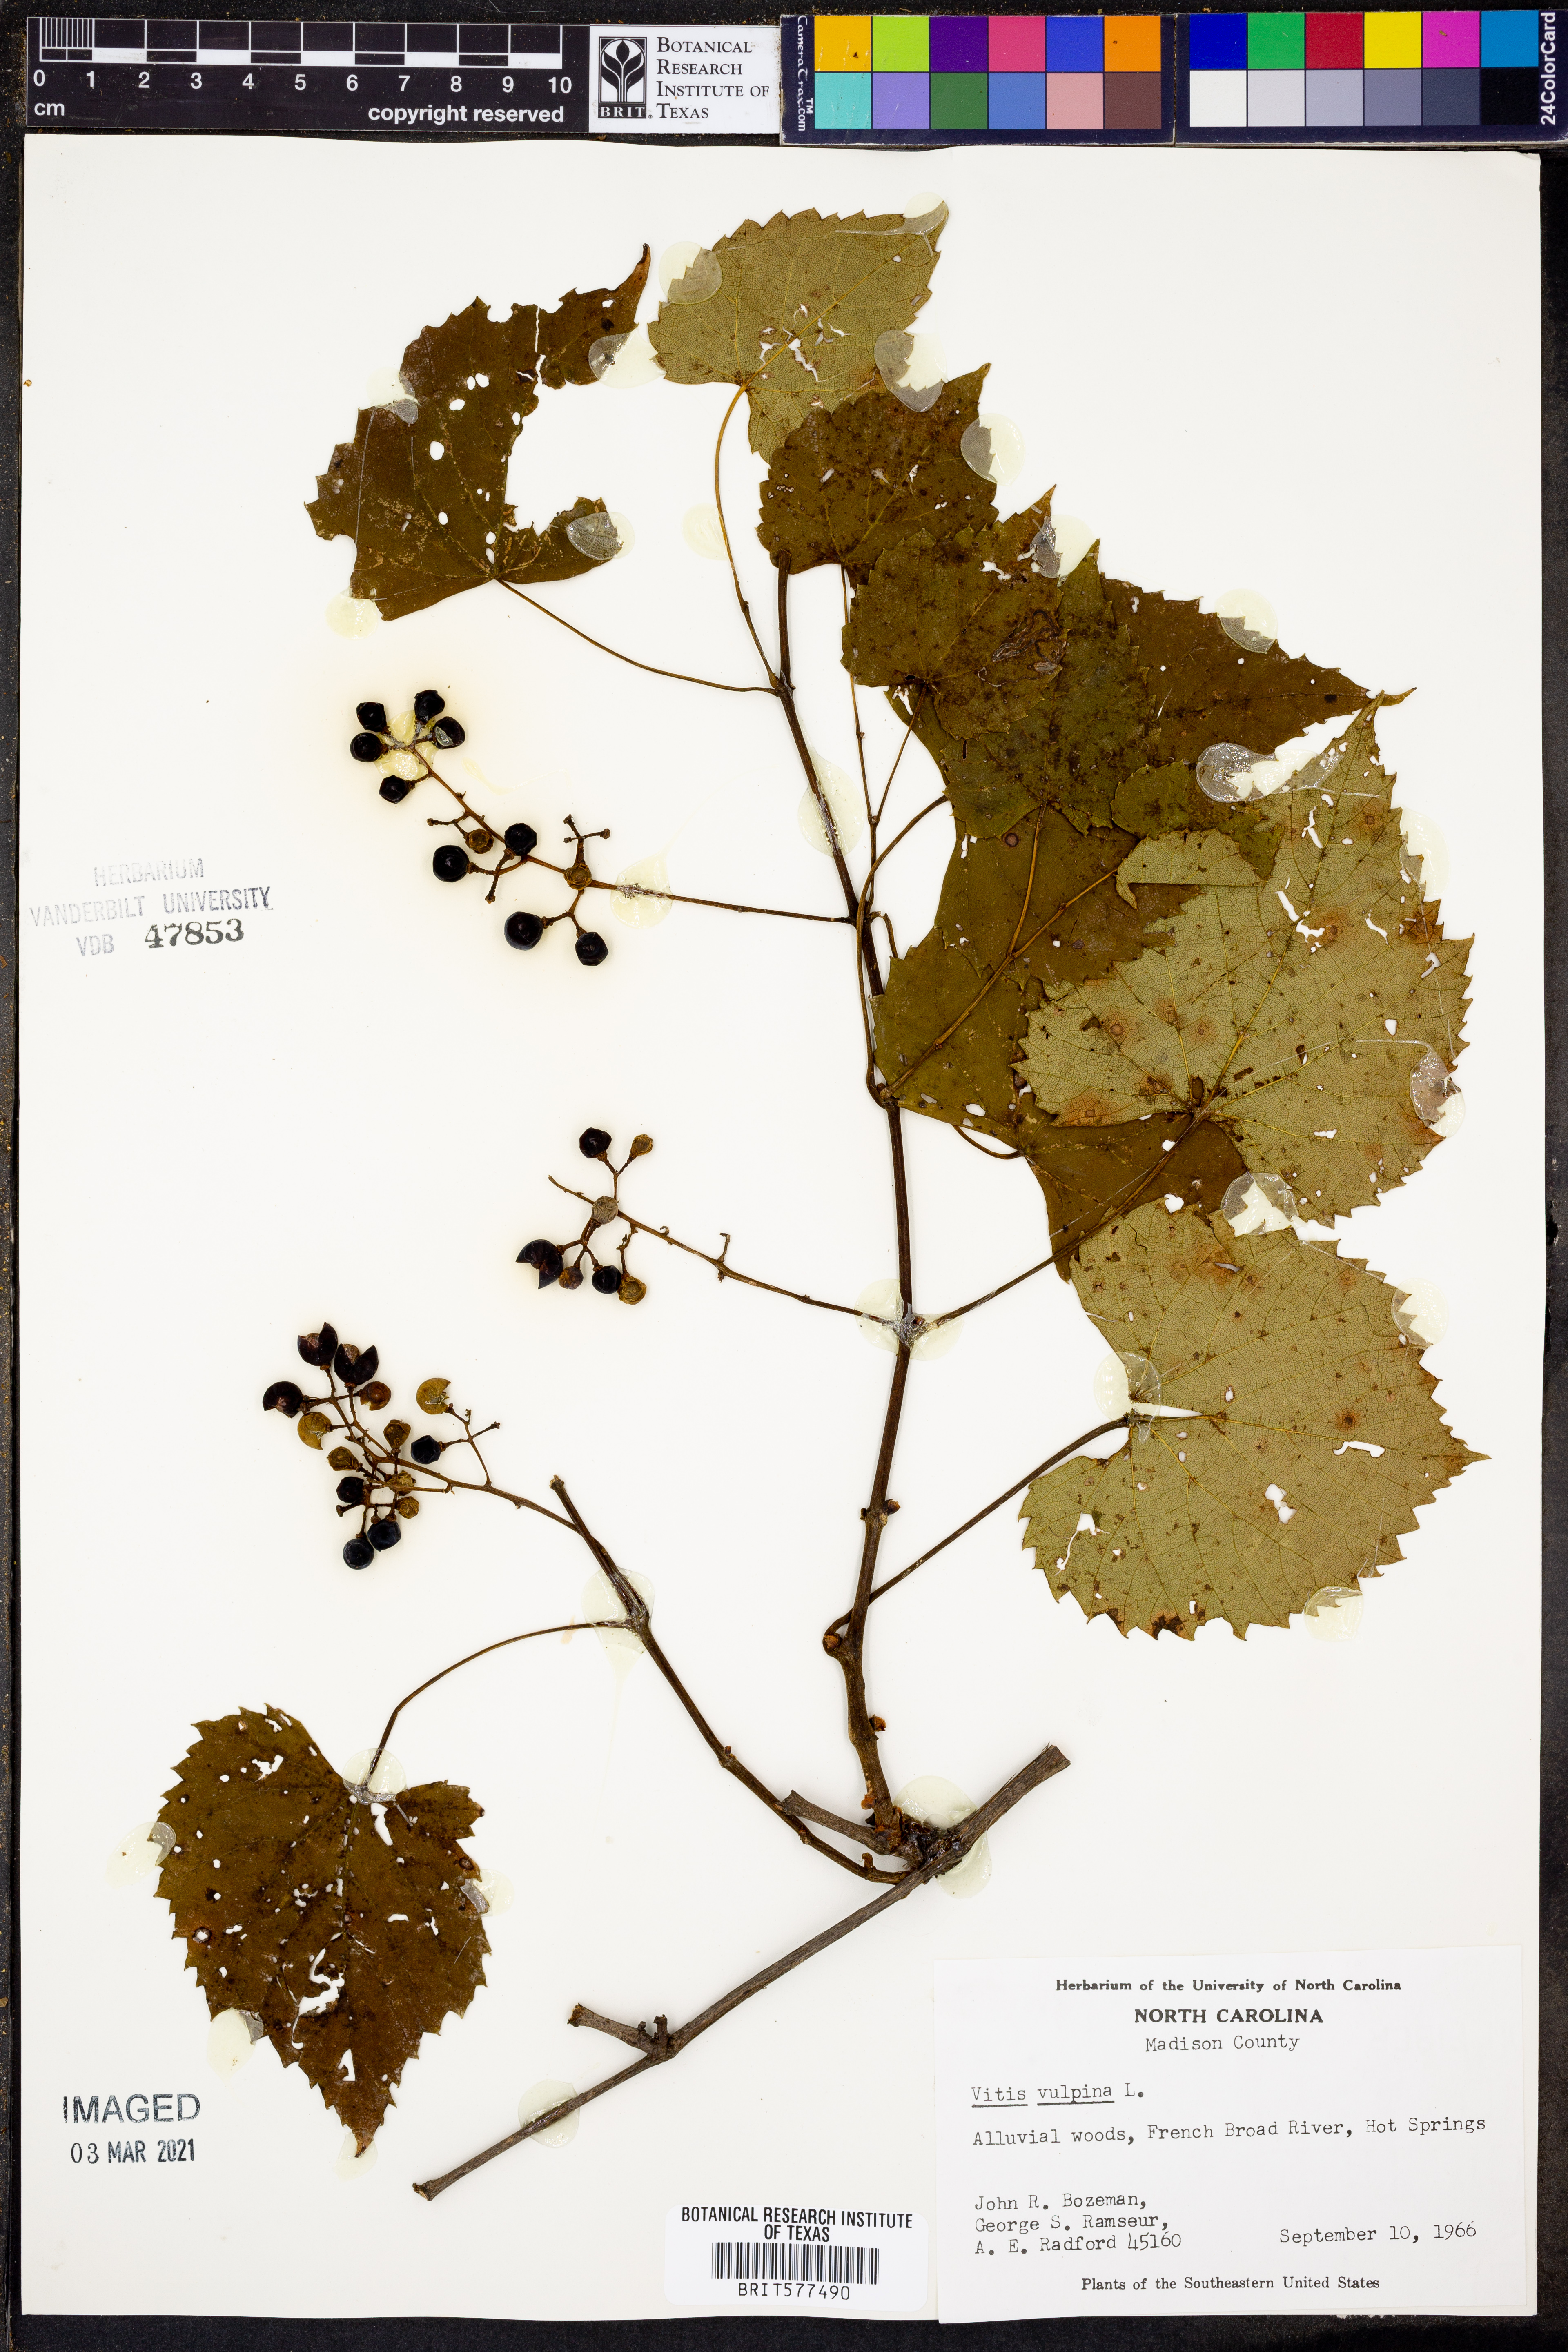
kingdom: Plantae
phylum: Tracheophyta
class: Magnoliopsida
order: Vitales
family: Vitaceae
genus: Vitis
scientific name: Vitis vulpina
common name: Frost grape
